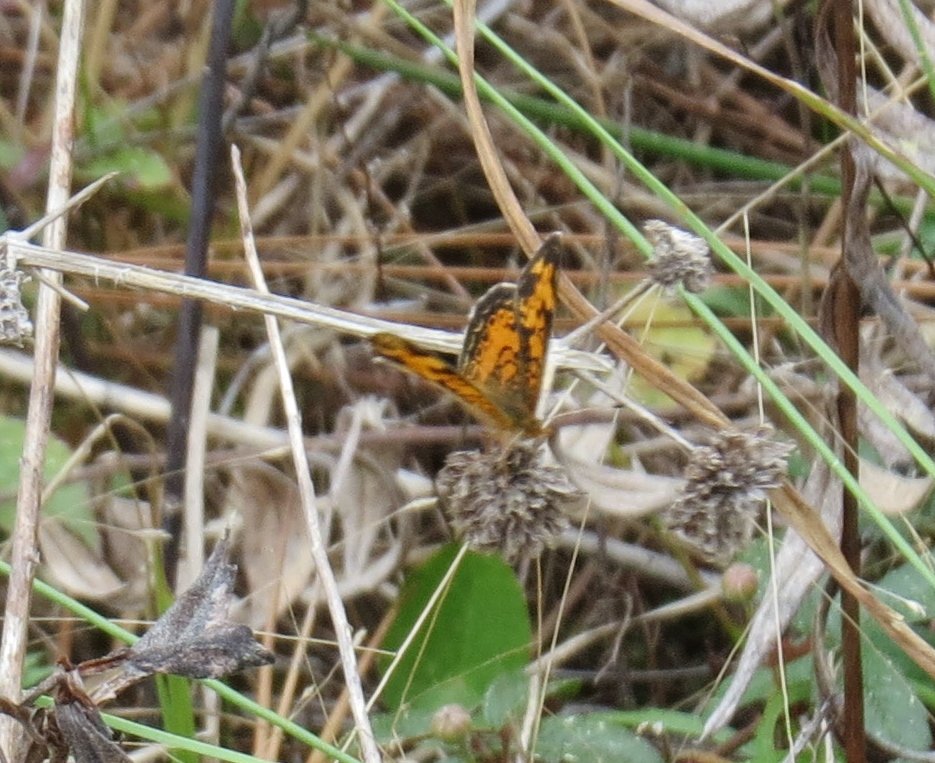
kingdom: Animalia
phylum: Arthropoda
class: Insecta
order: Lepidoptera
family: Nymphalidae
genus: Phyciodes
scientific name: Phyciodes tharos
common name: Pearl Crescent
